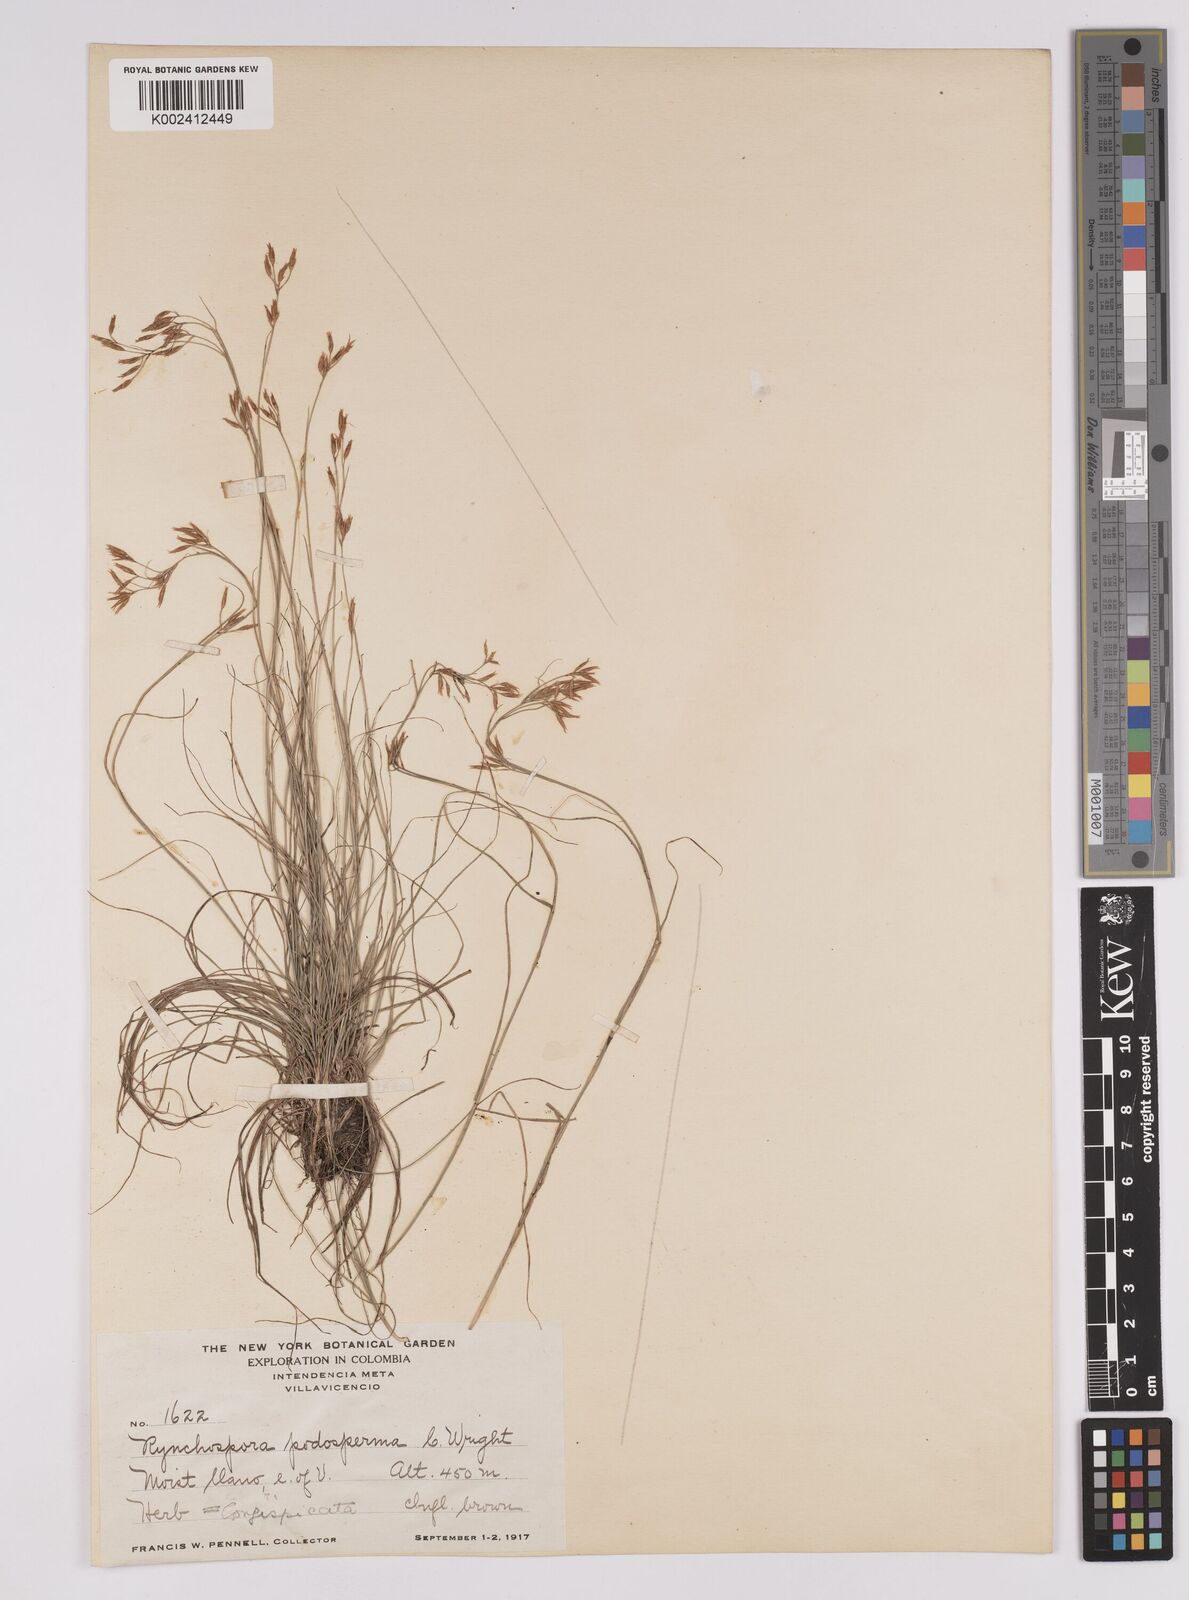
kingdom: Plantae
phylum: Tracheophyta
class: Liliopsida
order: Poales
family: Cyperaceae
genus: Rhynchospora
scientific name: Rhynchospora filiformis
